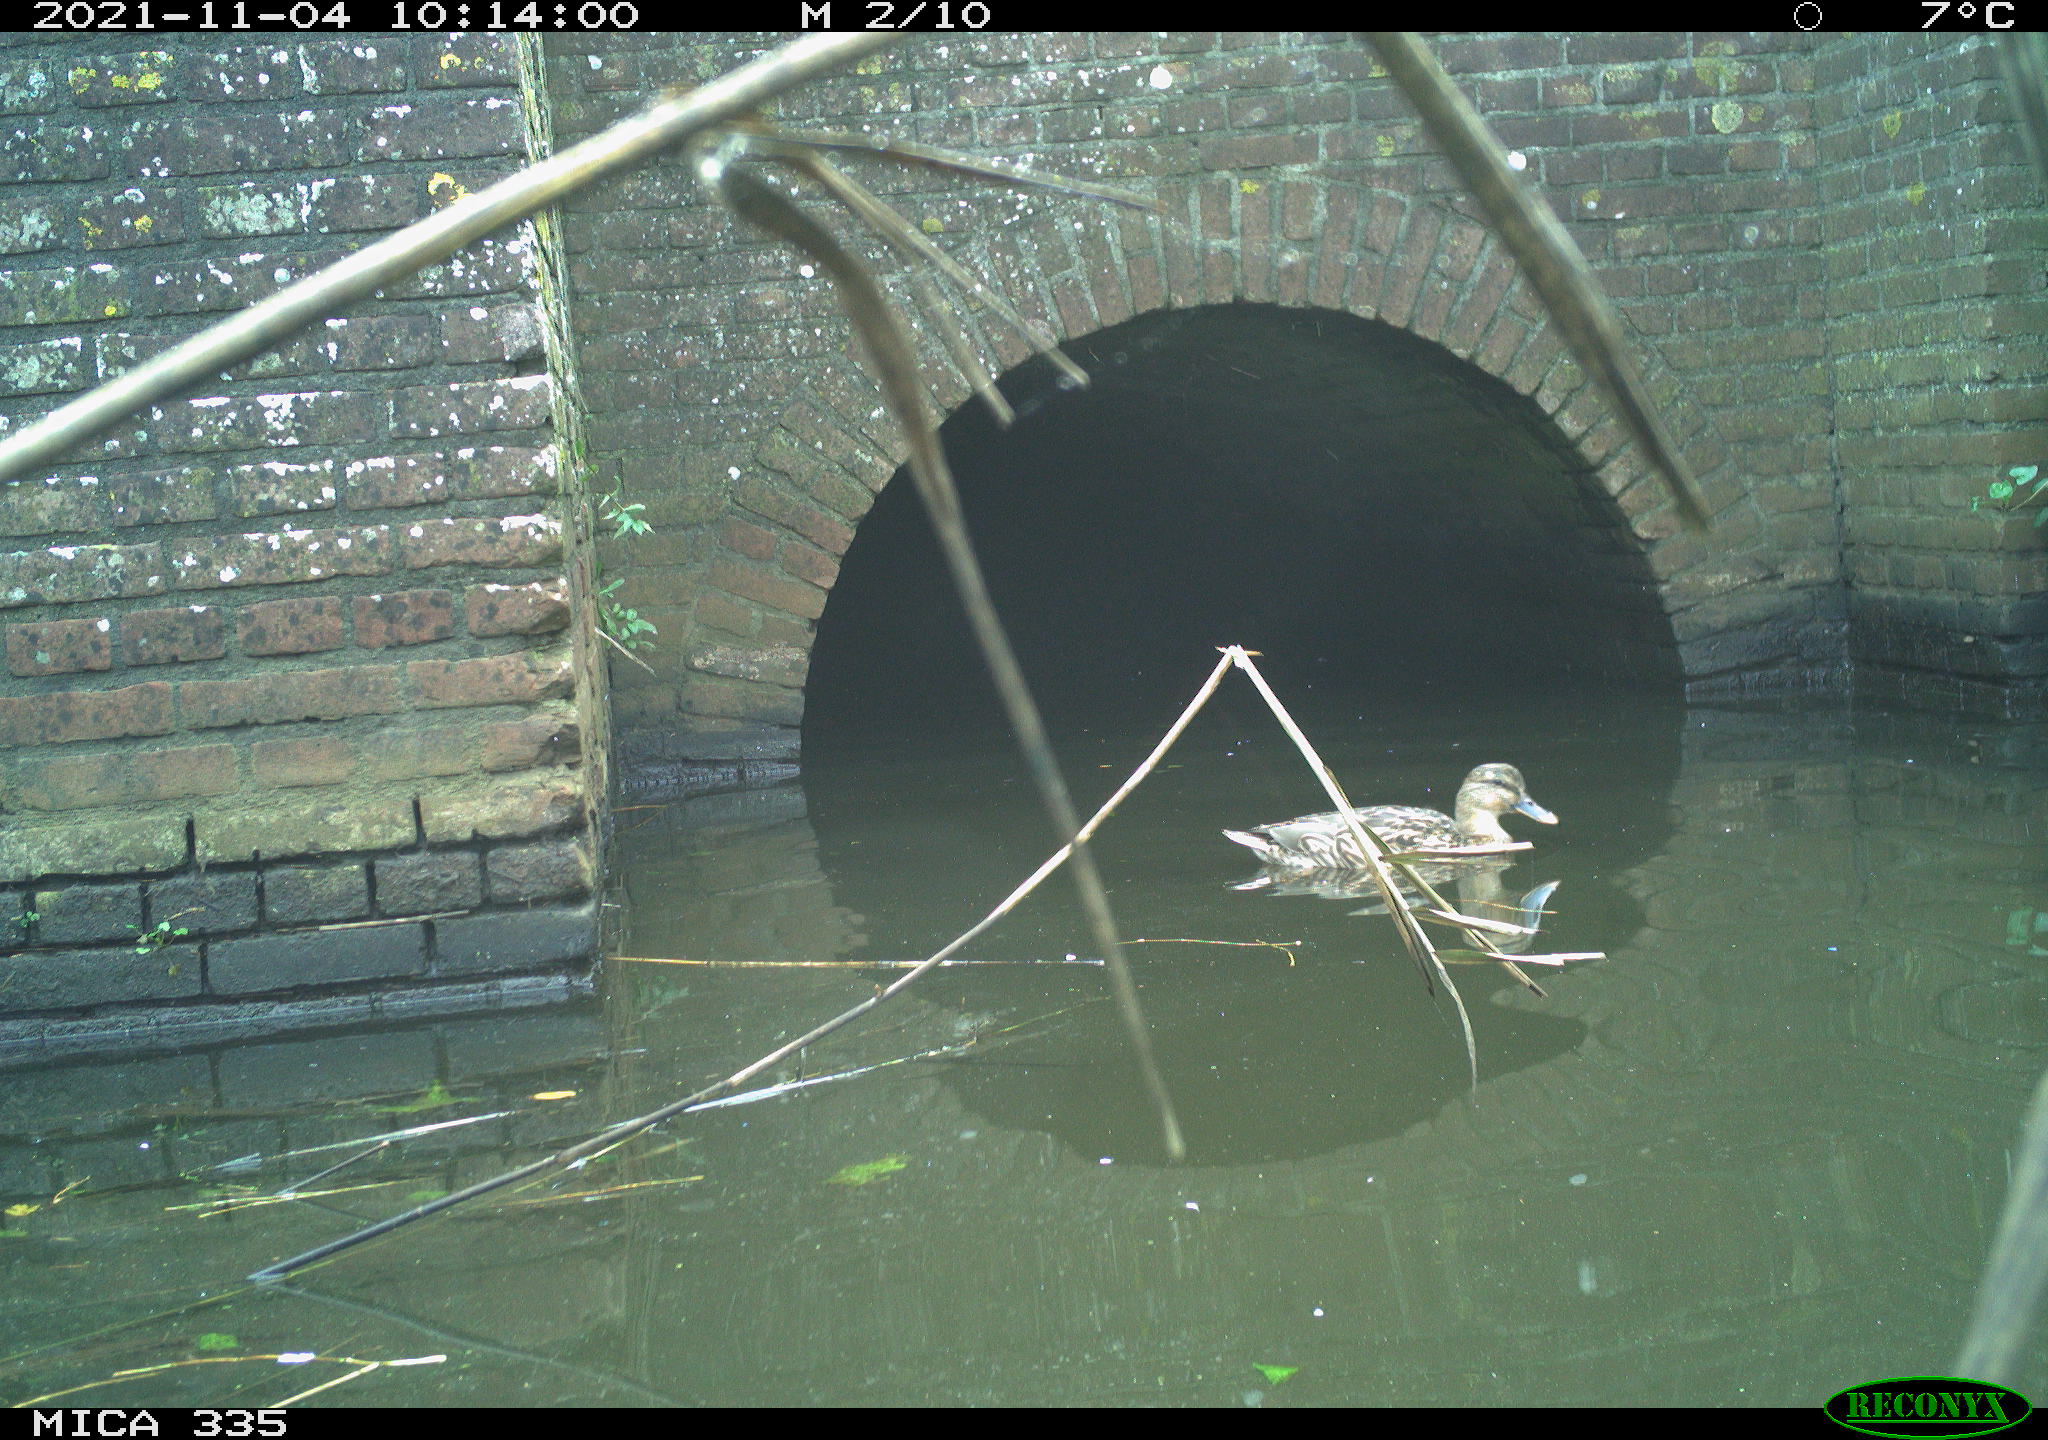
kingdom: Animalia
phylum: Chordata
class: Aves
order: Gruiformes
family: Rallidae
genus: Fulica
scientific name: Fulica atra
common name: Eurasian coot
